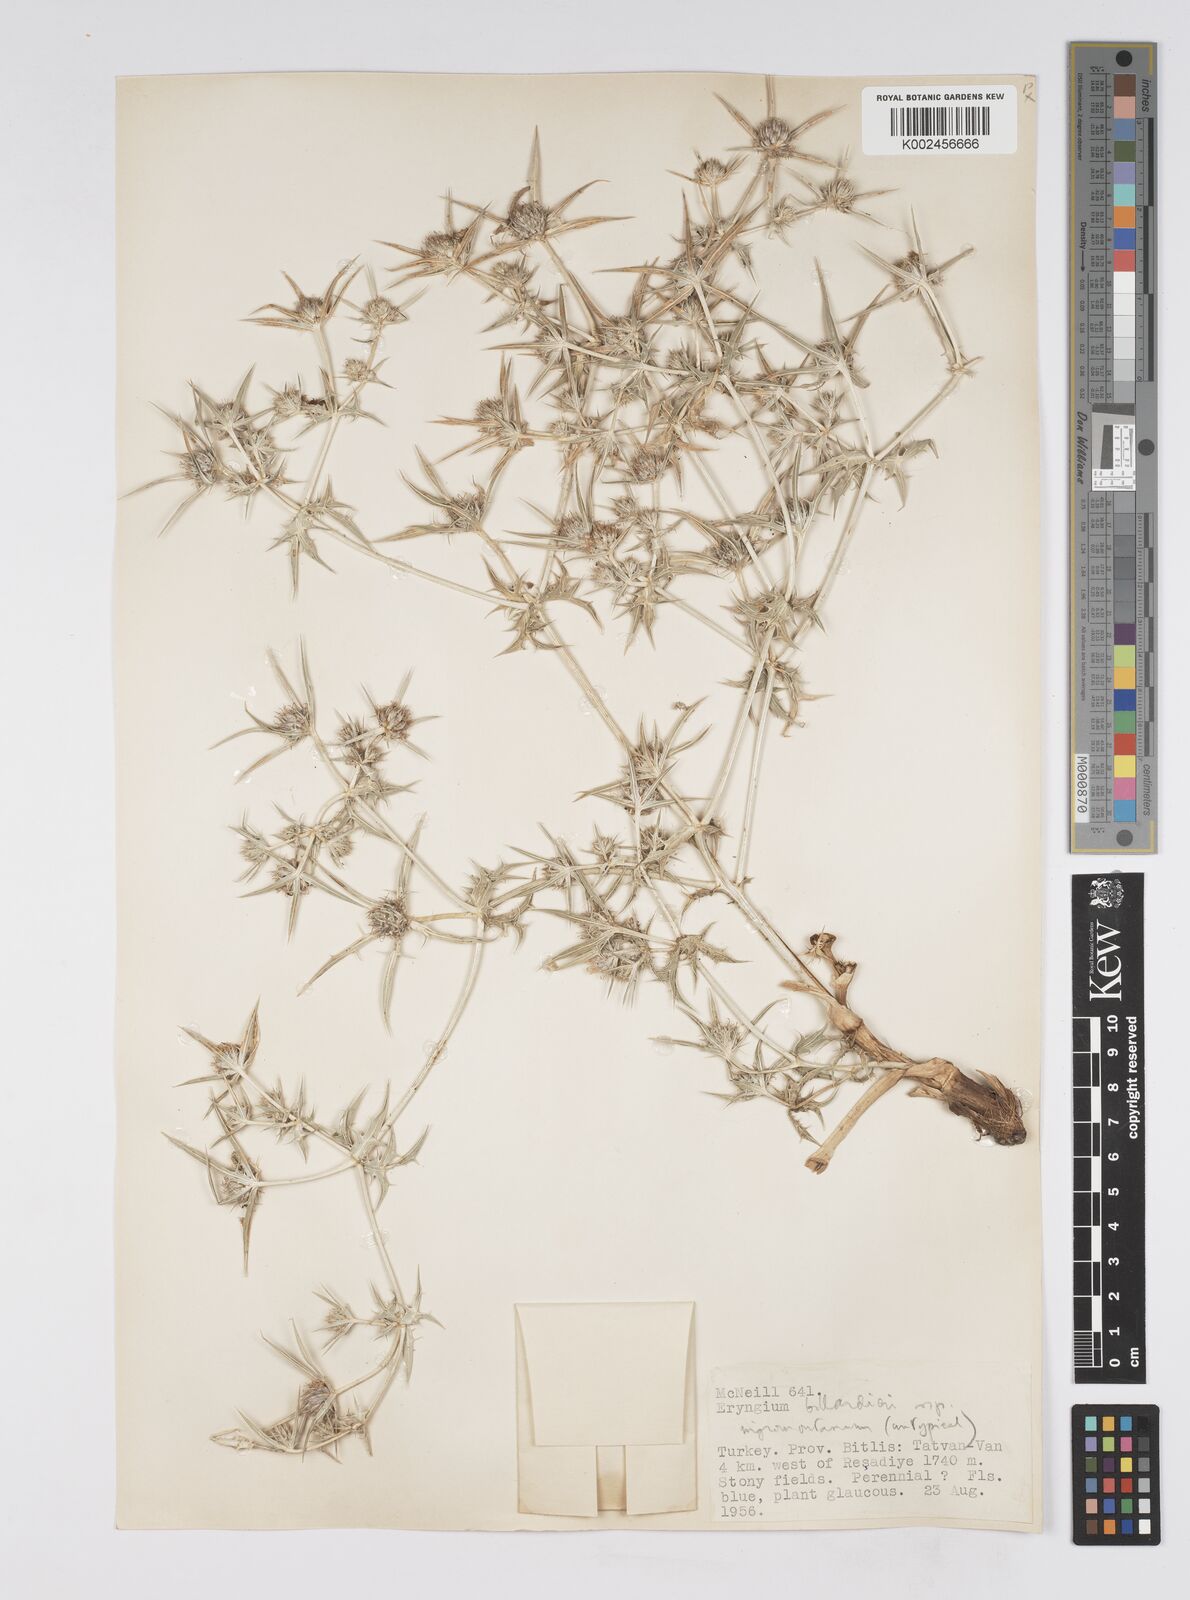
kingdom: Plantae
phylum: Tracheophyta
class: Magnoliopsida
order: Apiales
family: Apiaceae
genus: Eryngium
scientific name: Eryngium billardierei
